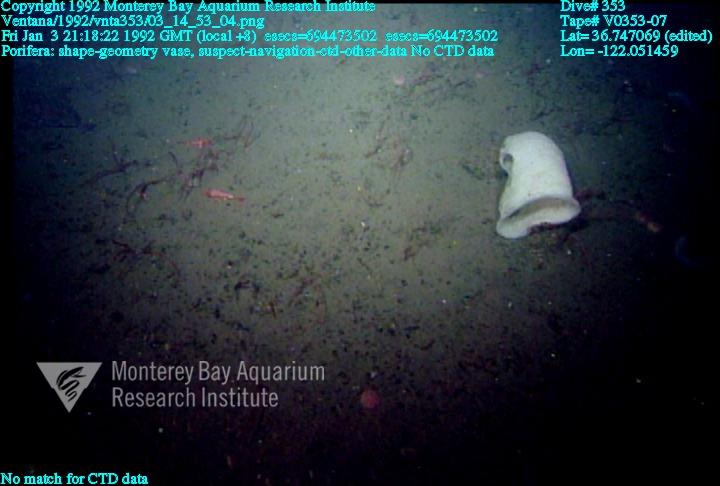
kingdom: Animalia
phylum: Porifera
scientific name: Porifera
